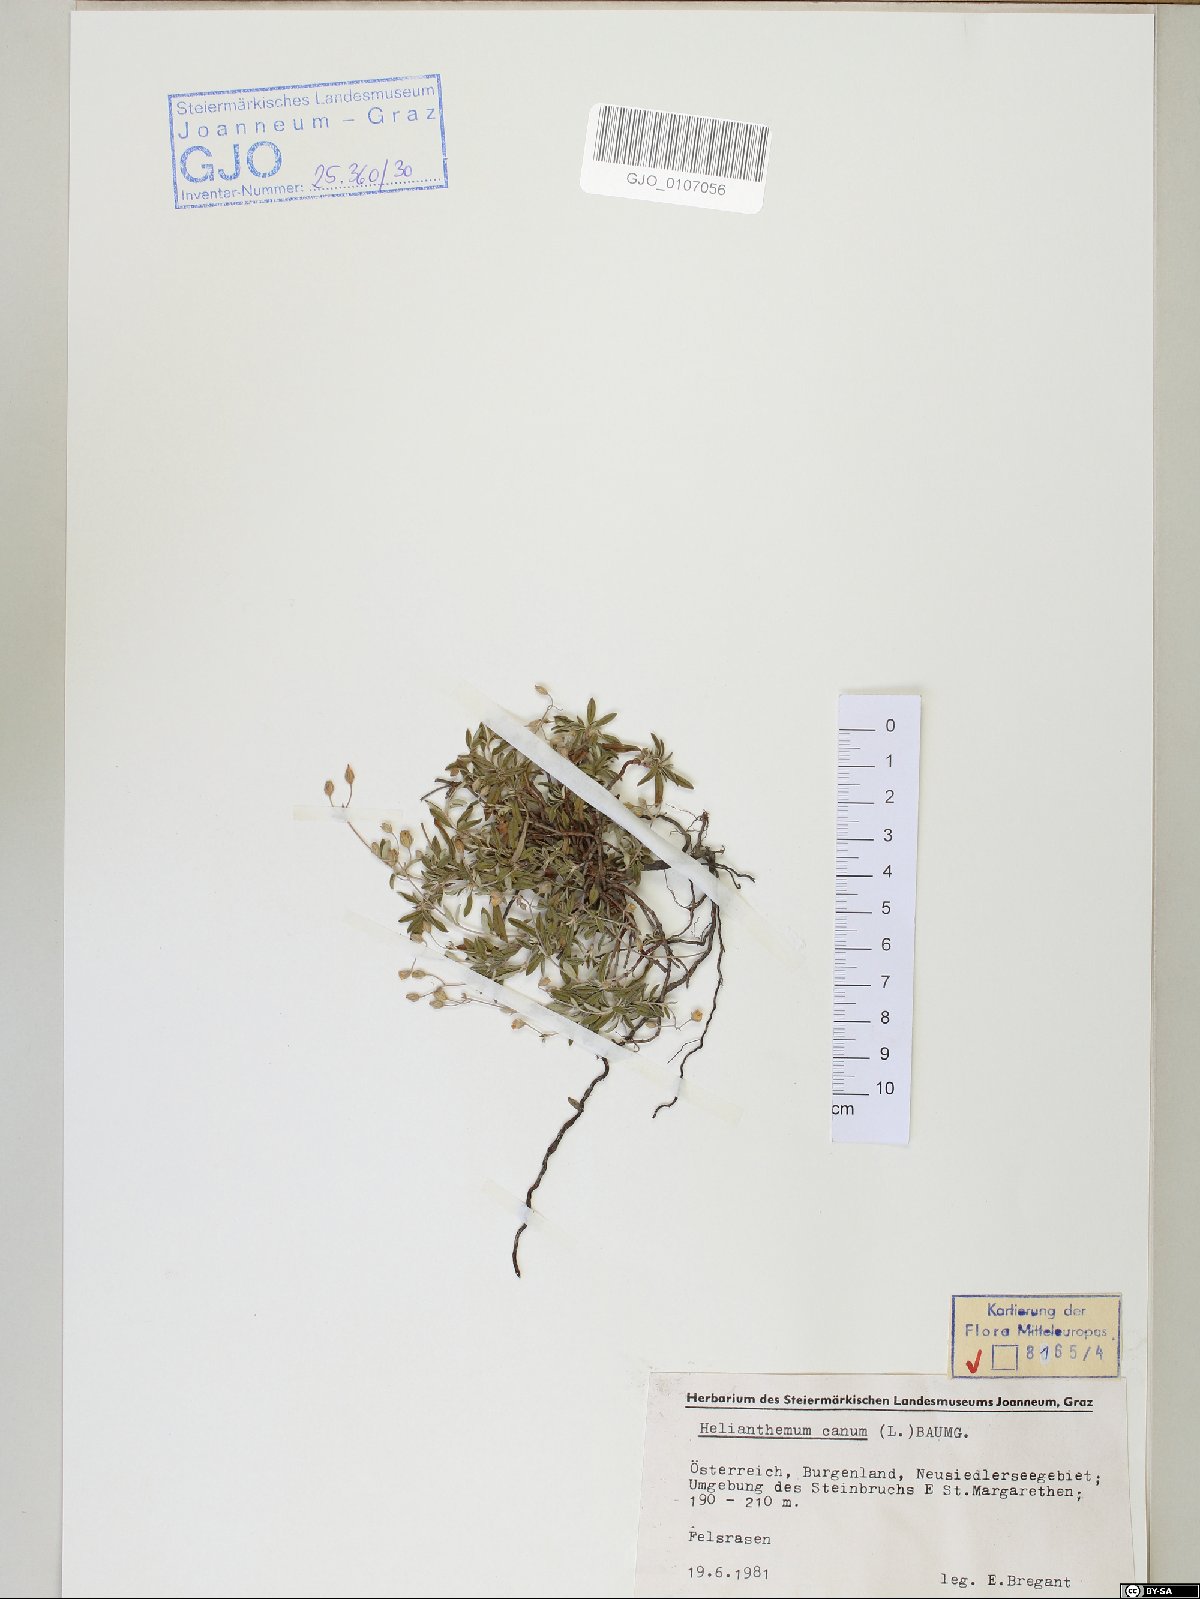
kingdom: Plantae
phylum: Tracheophyta
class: Magnoliopsida
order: Malvales
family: Cistaceae
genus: Helianthemum
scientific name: Helianthemum canum
